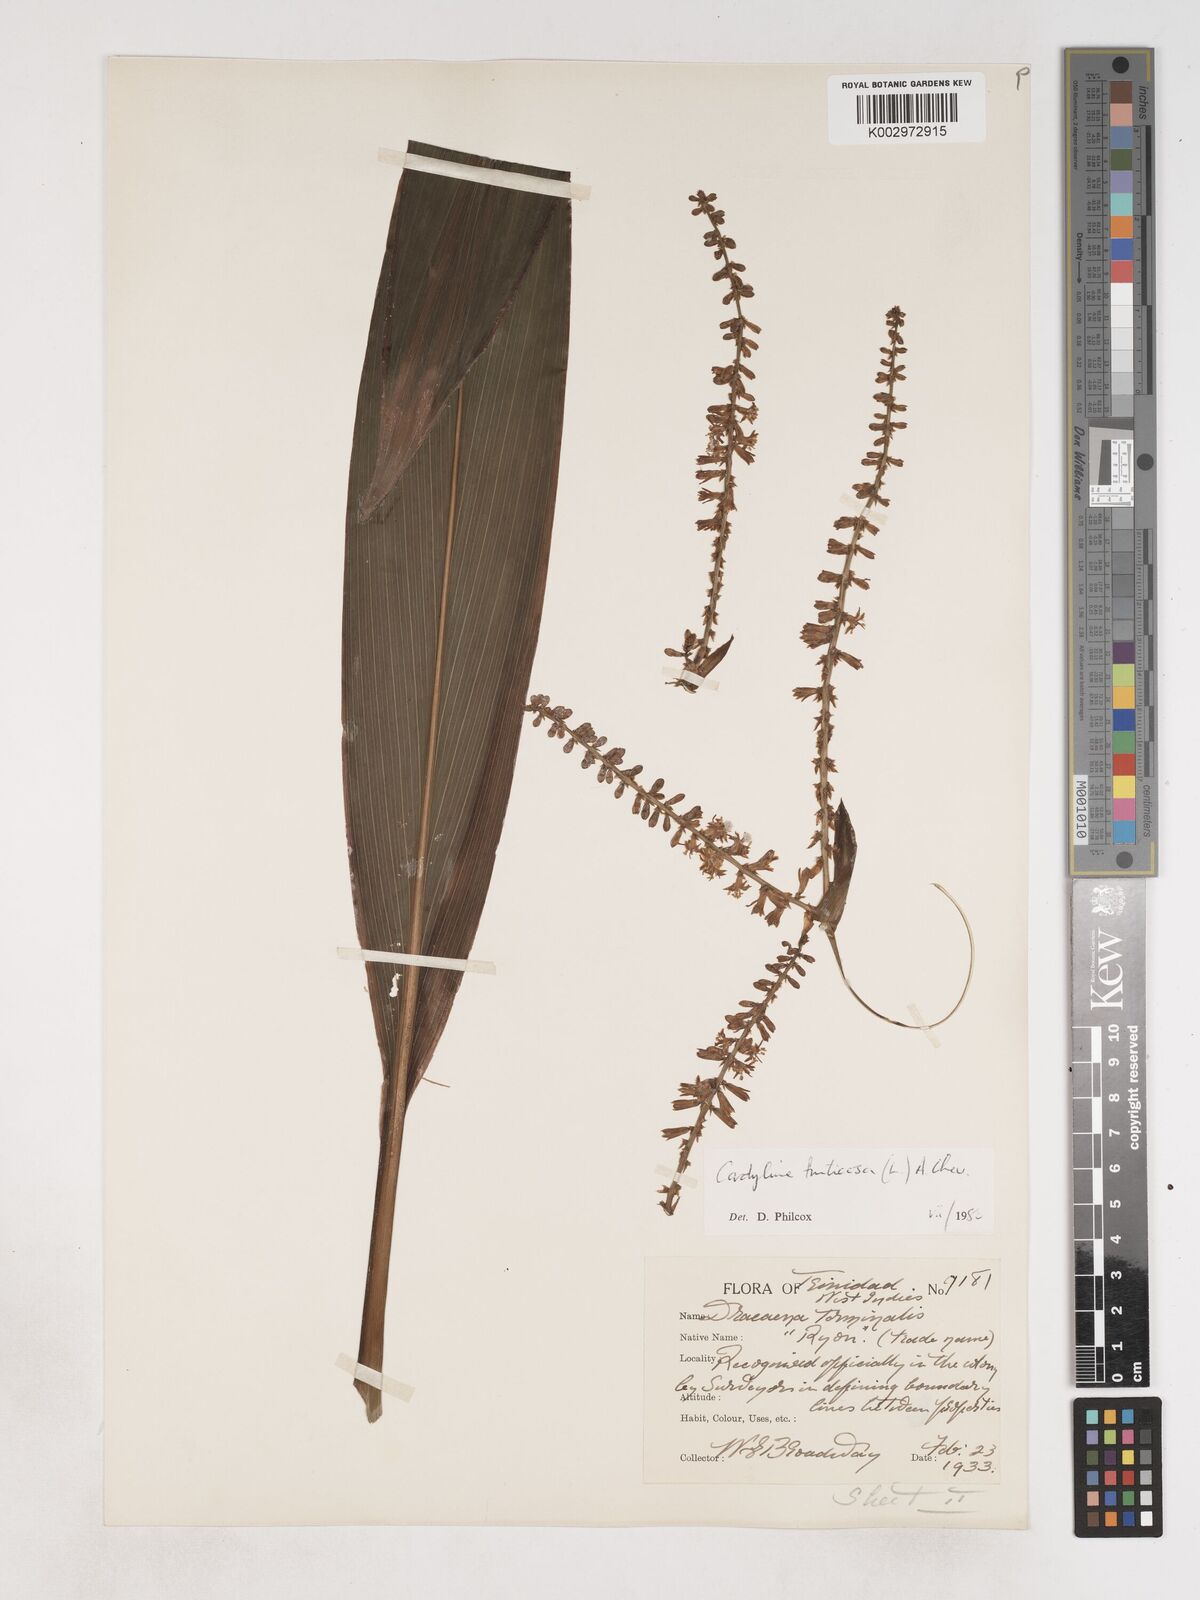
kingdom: Plantae
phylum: Tracheophyta
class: Liliopsida
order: Asparagales
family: Asparagaceae
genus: Cordyline
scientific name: Cordyline fruticosa
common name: Good-luck-plant
